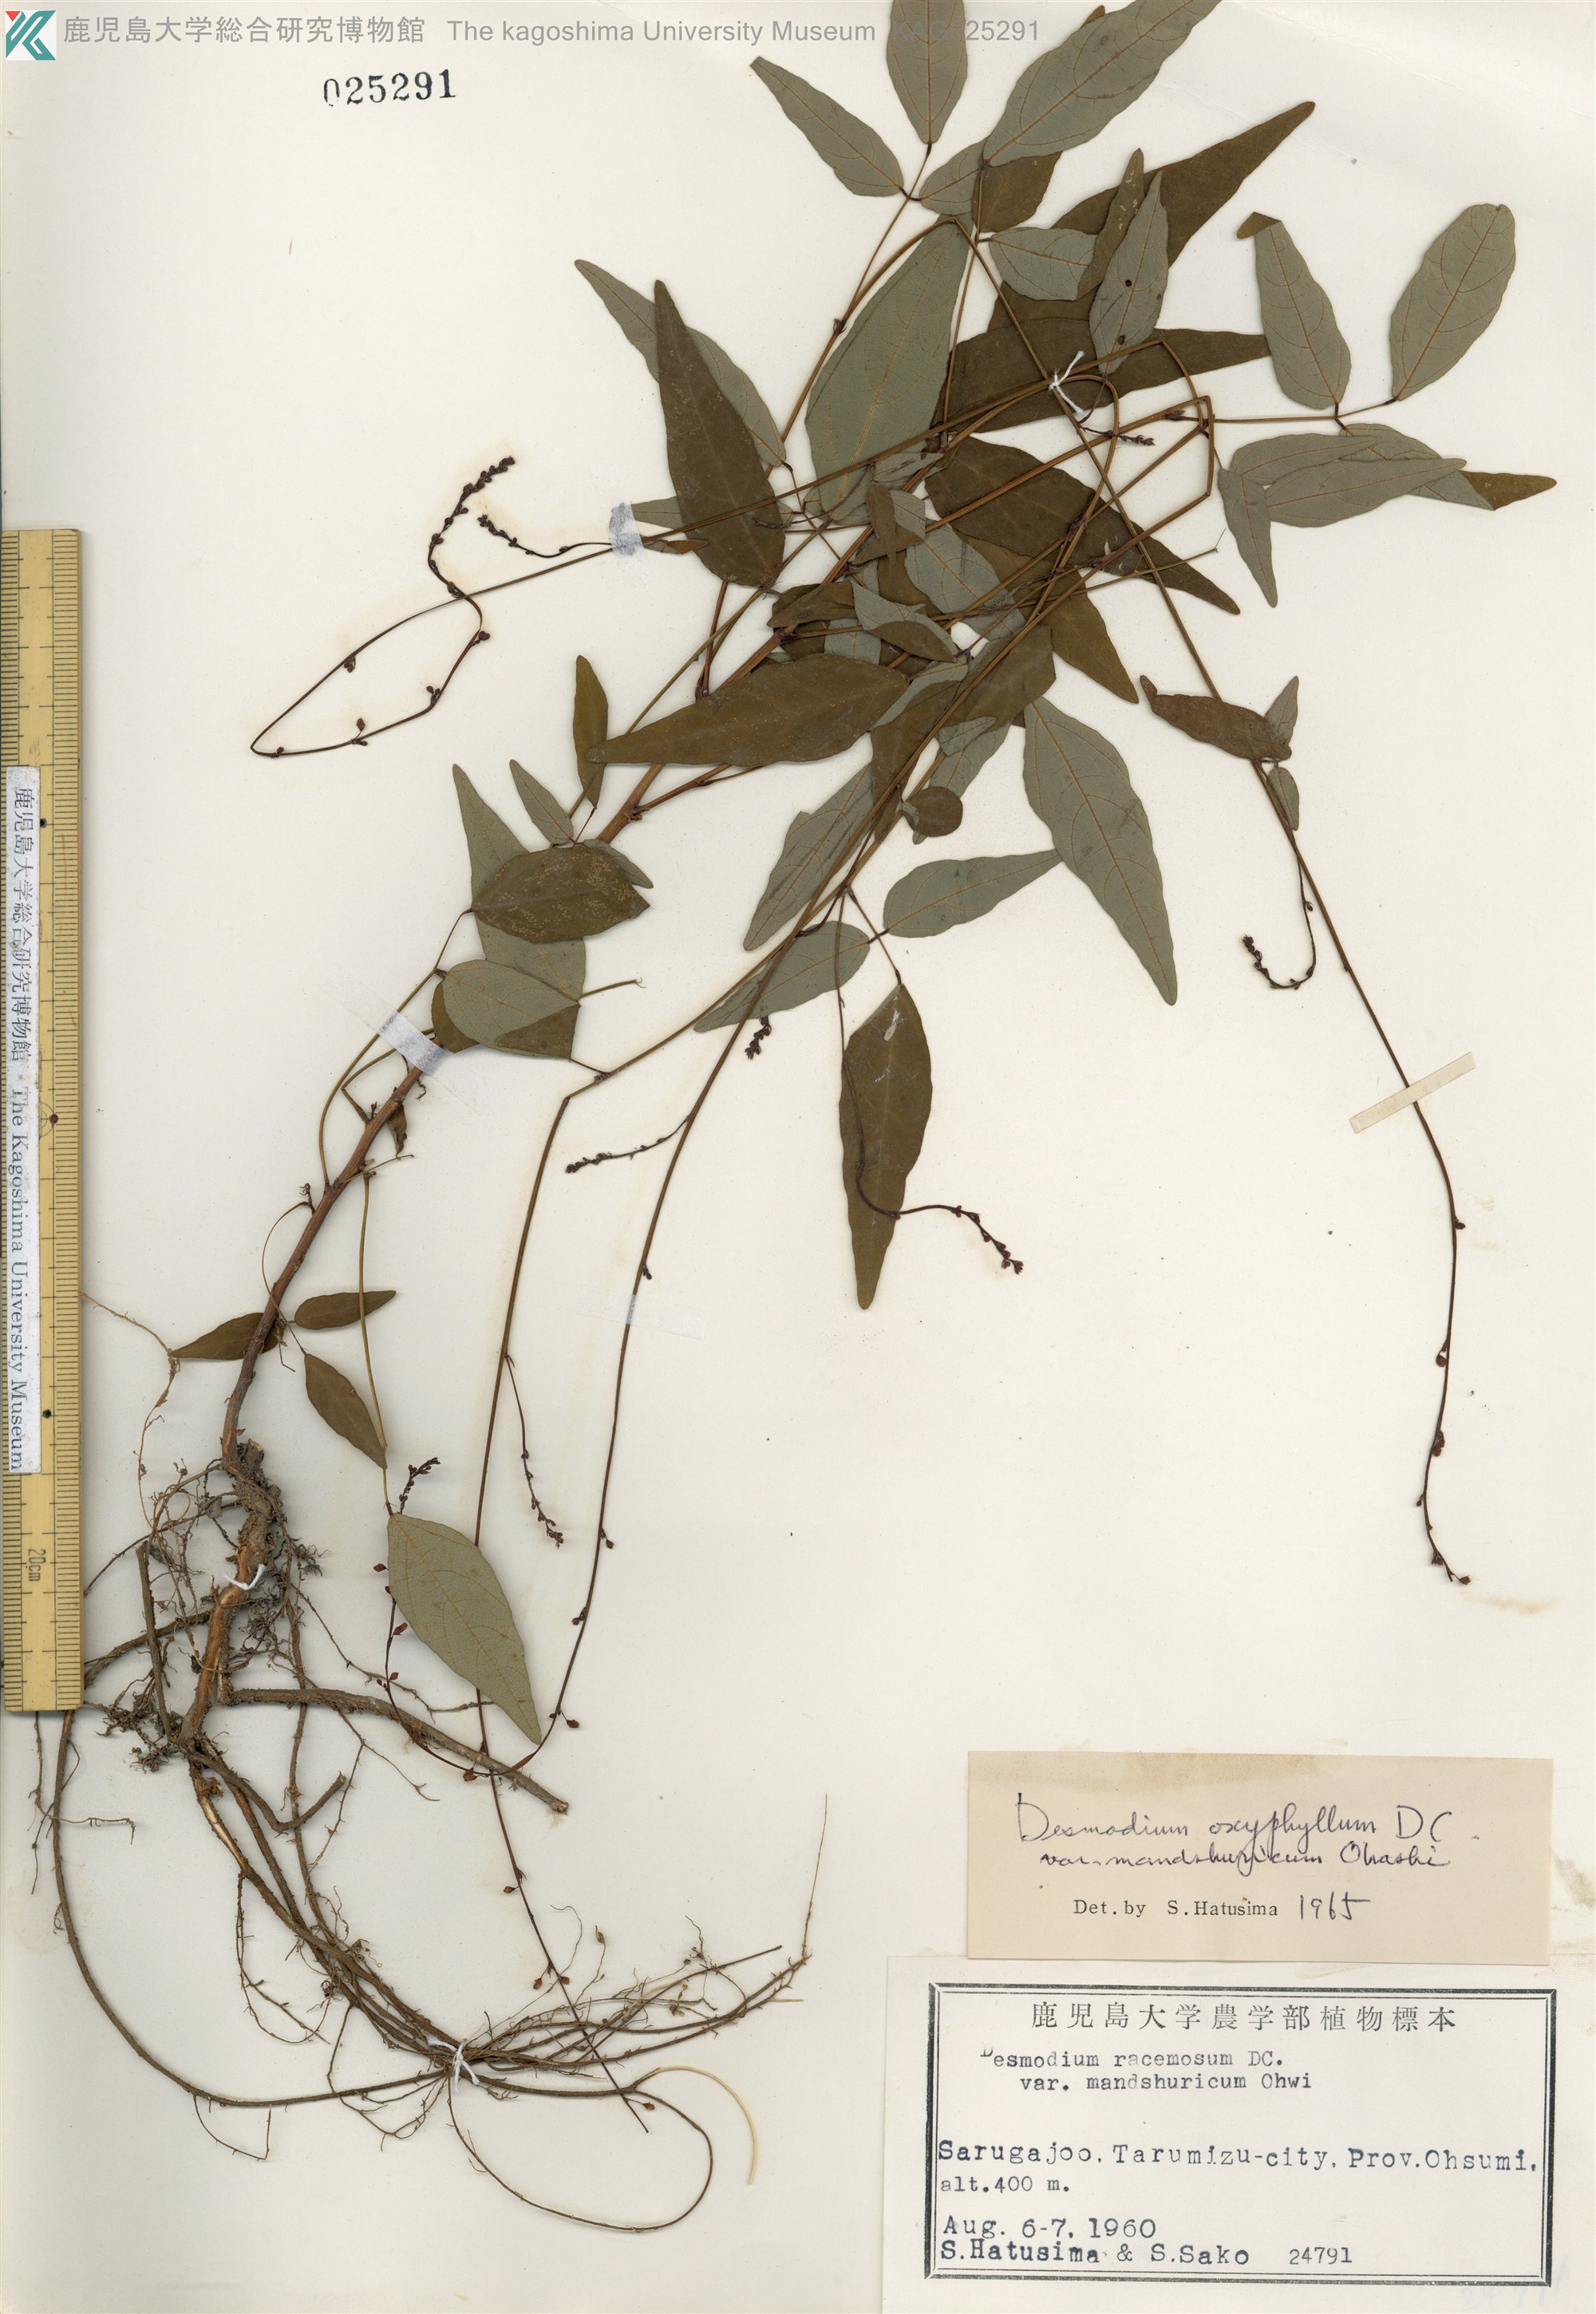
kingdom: Plantae
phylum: Tracheophyta
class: Magnoliopsida
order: Fabales
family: Fabaceae
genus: Hylodesmum
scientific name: Hylodesmum podocarpum
